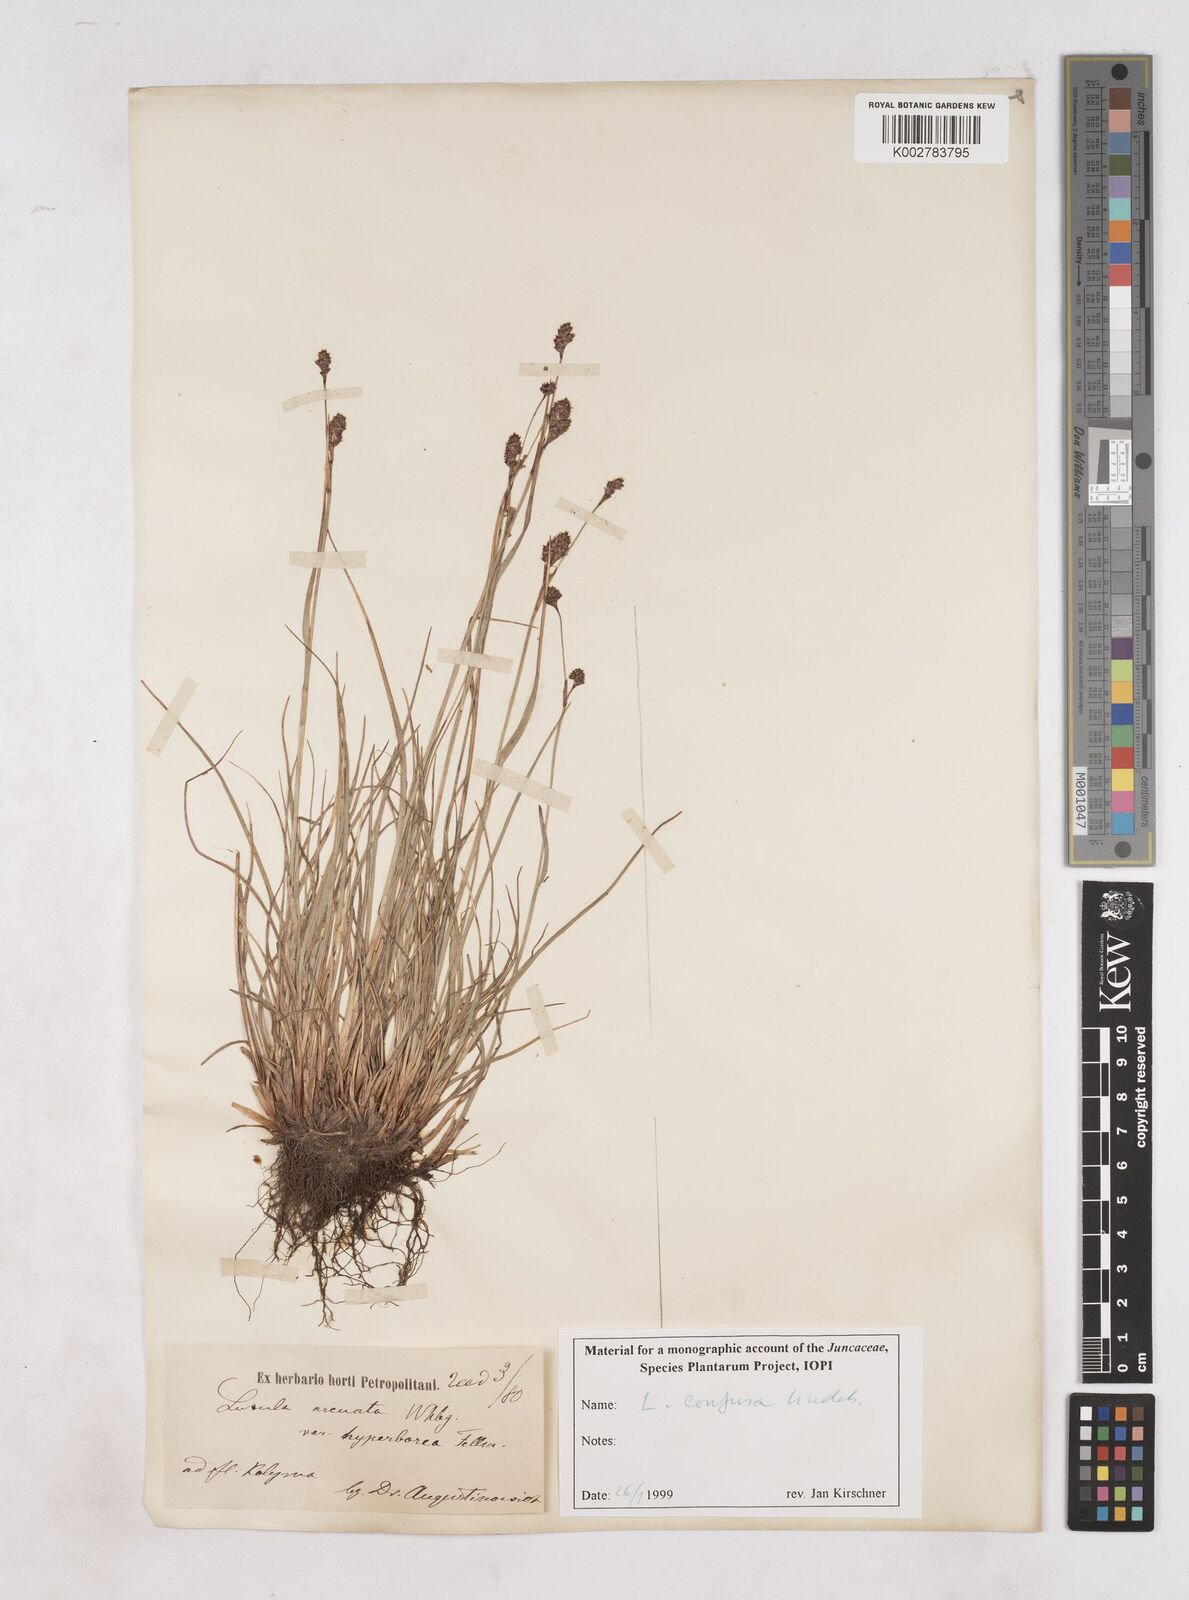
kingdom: Plantae
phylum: Tracheophyta
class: Liliopsida
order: Poales
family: Juncaceae
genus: Luzula
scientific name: Luzula nivalis
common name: Arctic woodrush
